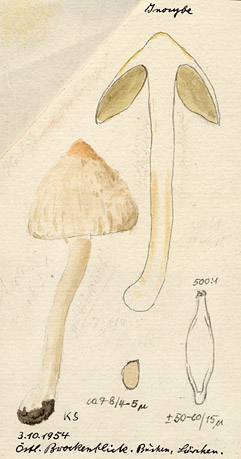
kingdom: Fungi
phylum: Basidiomycota
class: Agaricomycetes
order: Agaricales
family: Inocybaceae
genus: Inocybe
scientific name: Inocybe
